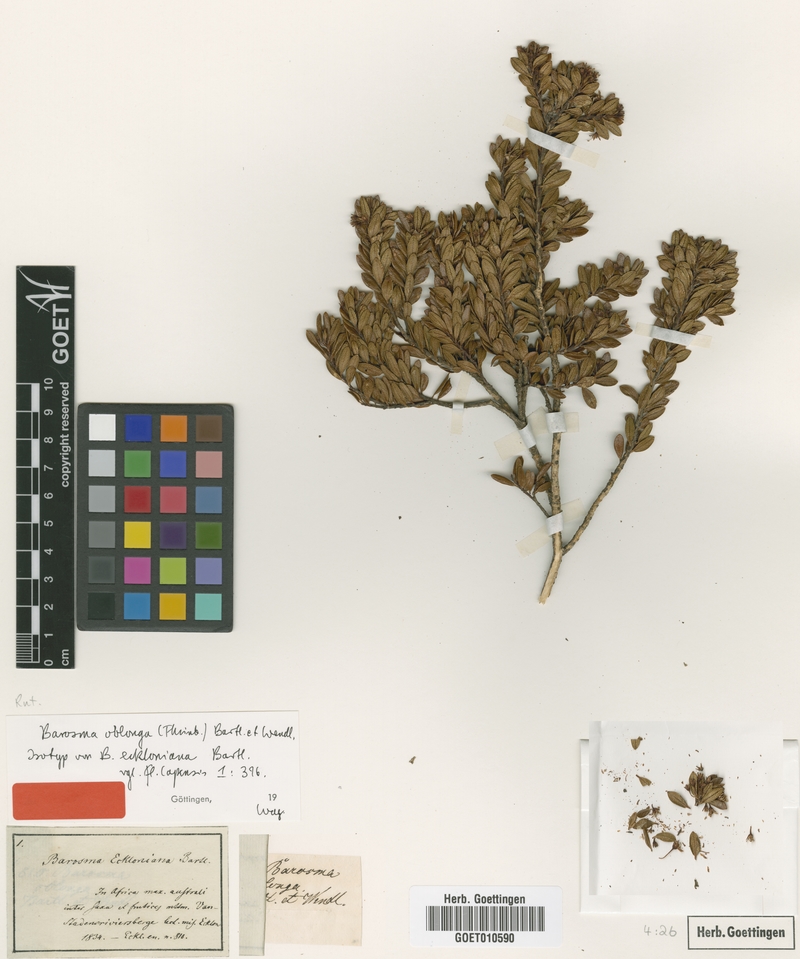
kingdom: Plantae
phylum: Tracheophyta
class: Magnoliopsida
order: Sapindales
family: Rutaceae
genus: Agathosma
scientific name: Agathosma ovata
